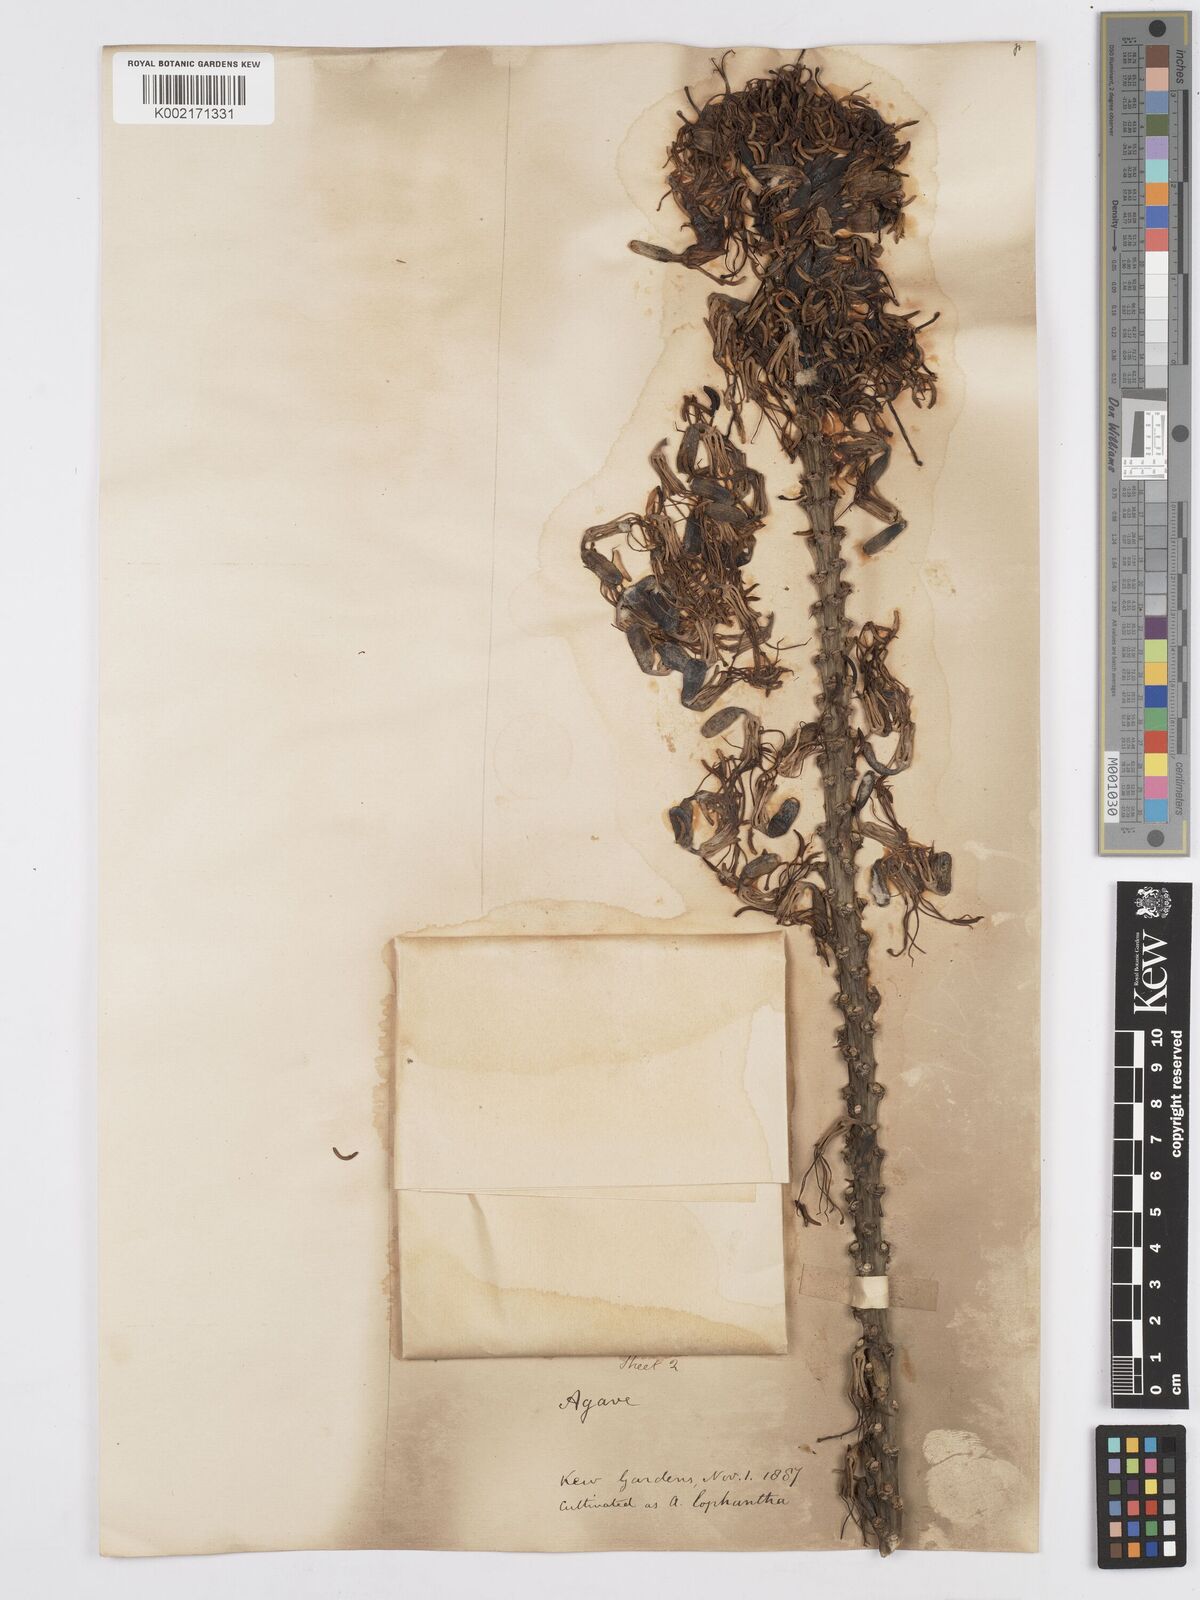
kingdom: Plantae
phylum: Tracheophyta
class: Liliopsida
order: Asparagales
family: Asparagaceae
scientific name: Asparagaceae
